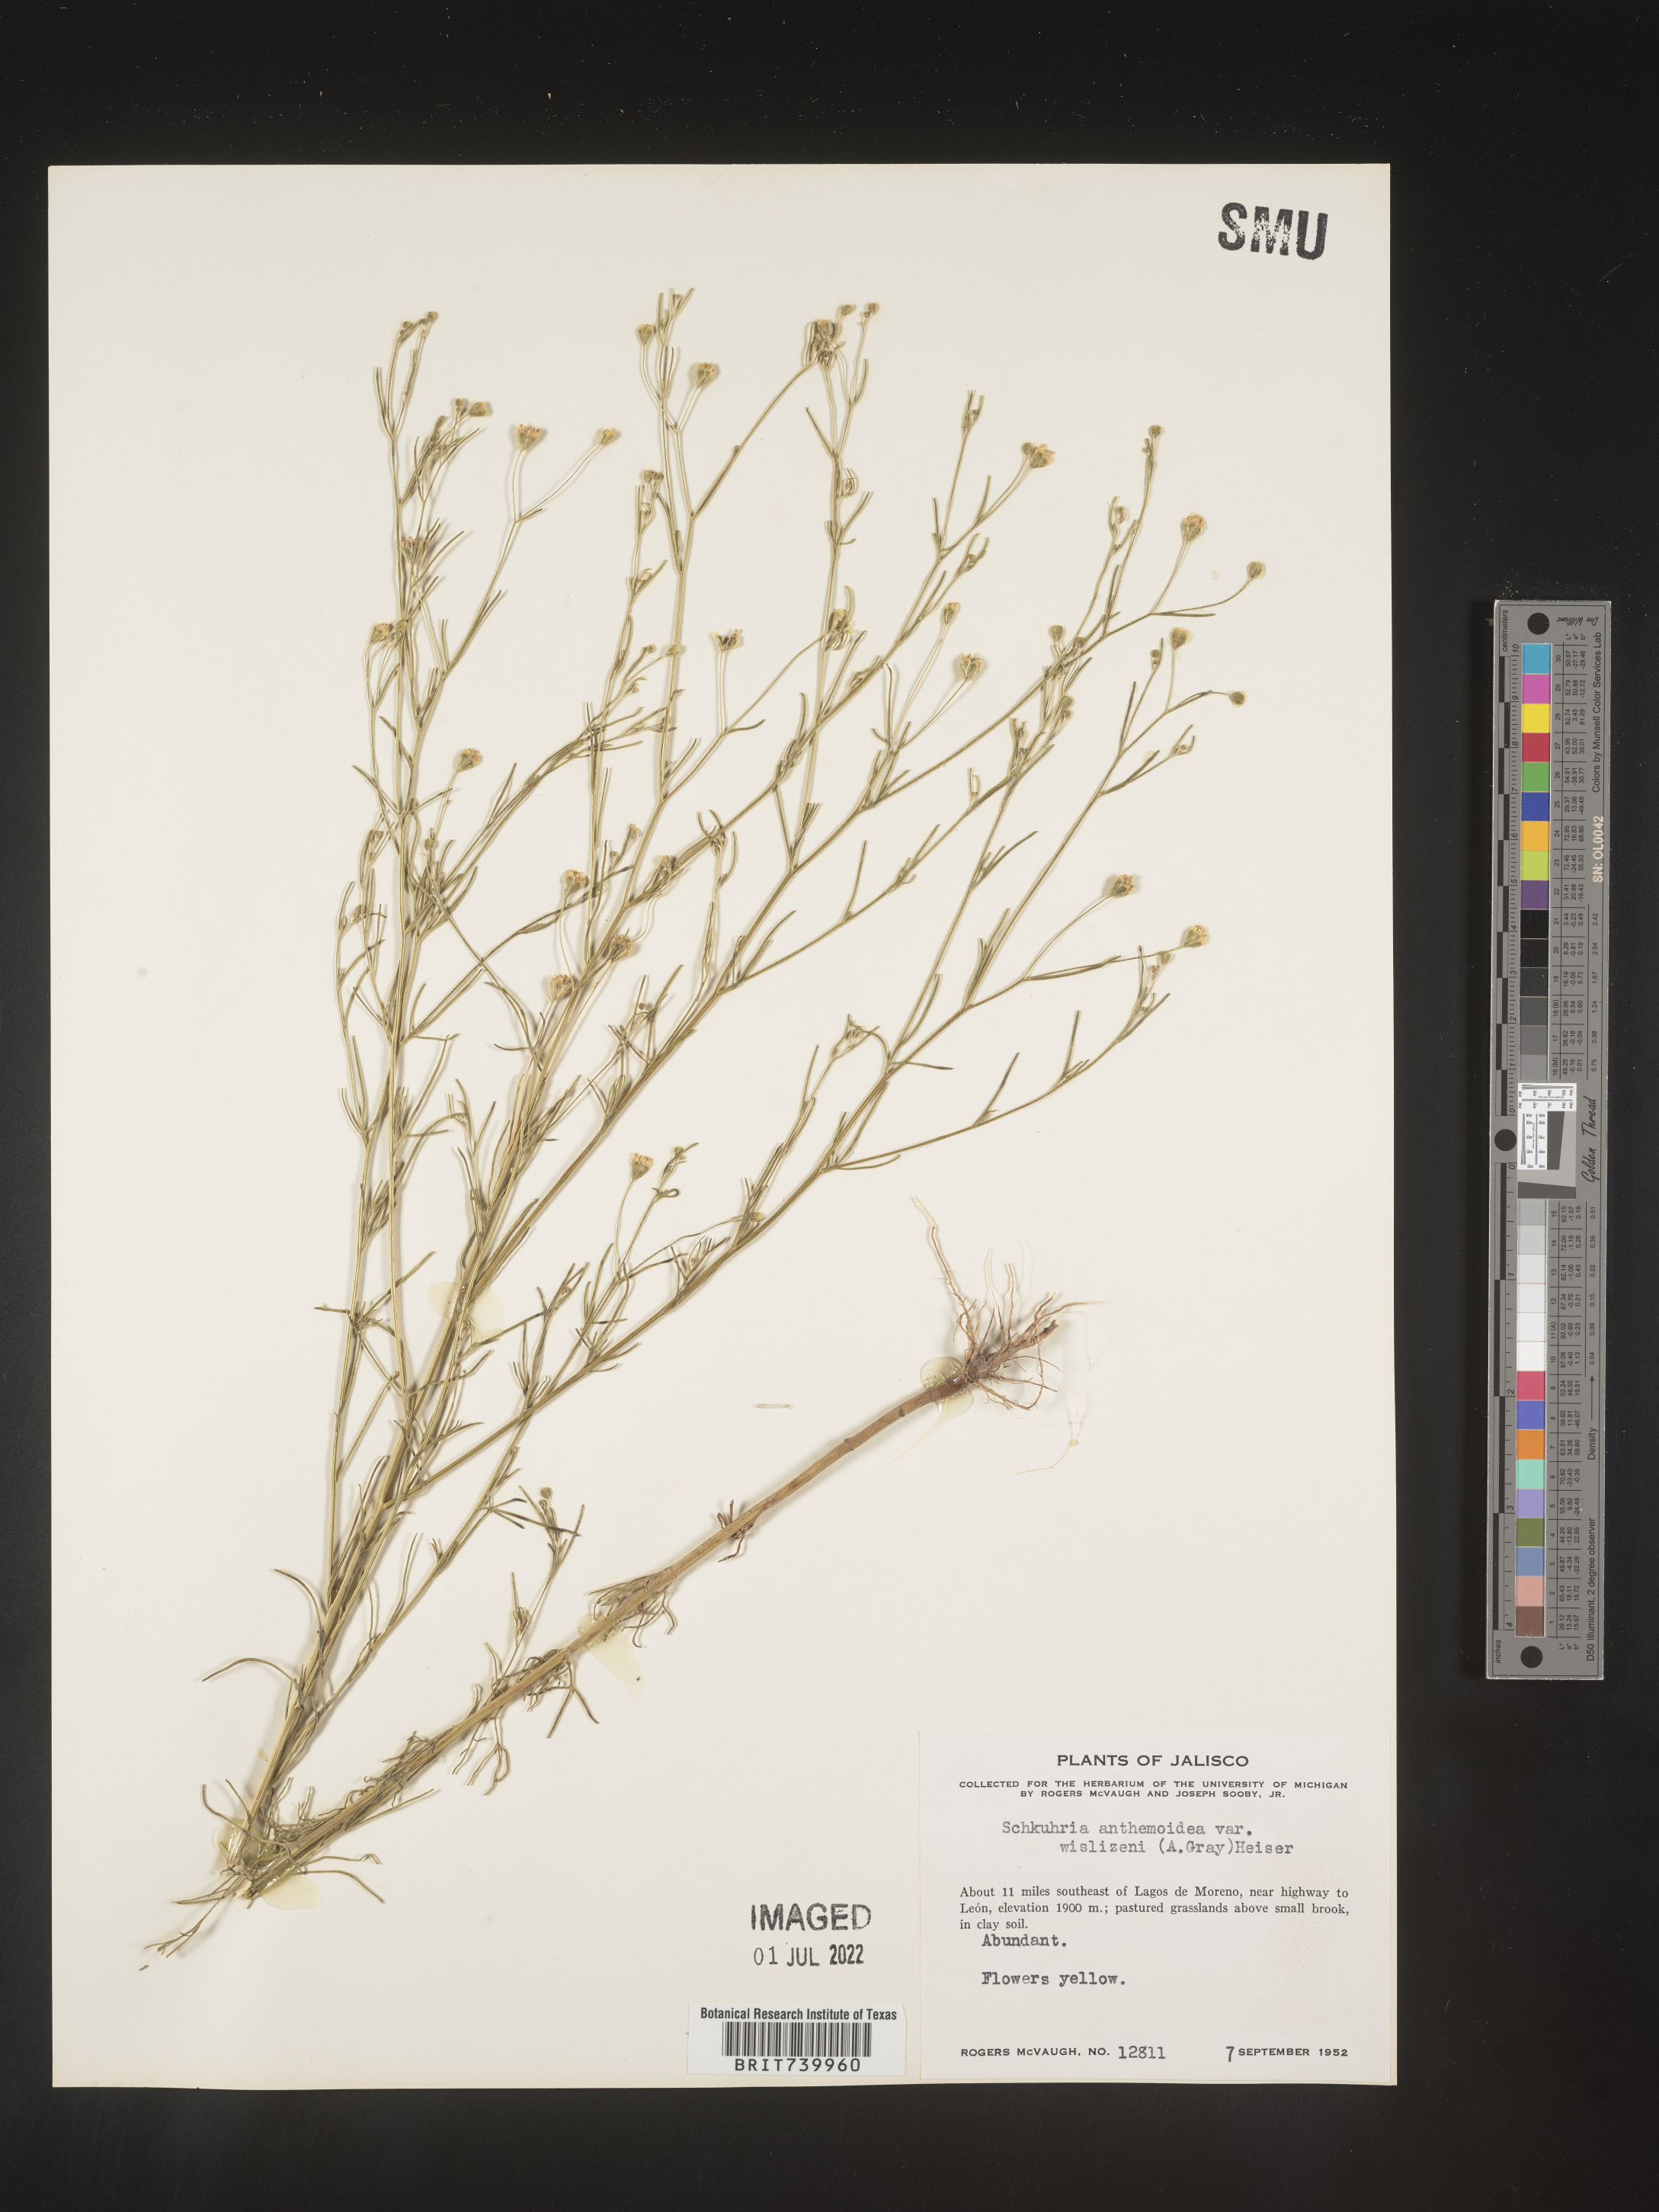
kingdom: Plantae
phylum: Tracheophyta
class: Magnoliopsida
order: Asterales
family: Asteraceae
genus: Schkuhria
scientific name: Schkuhria
